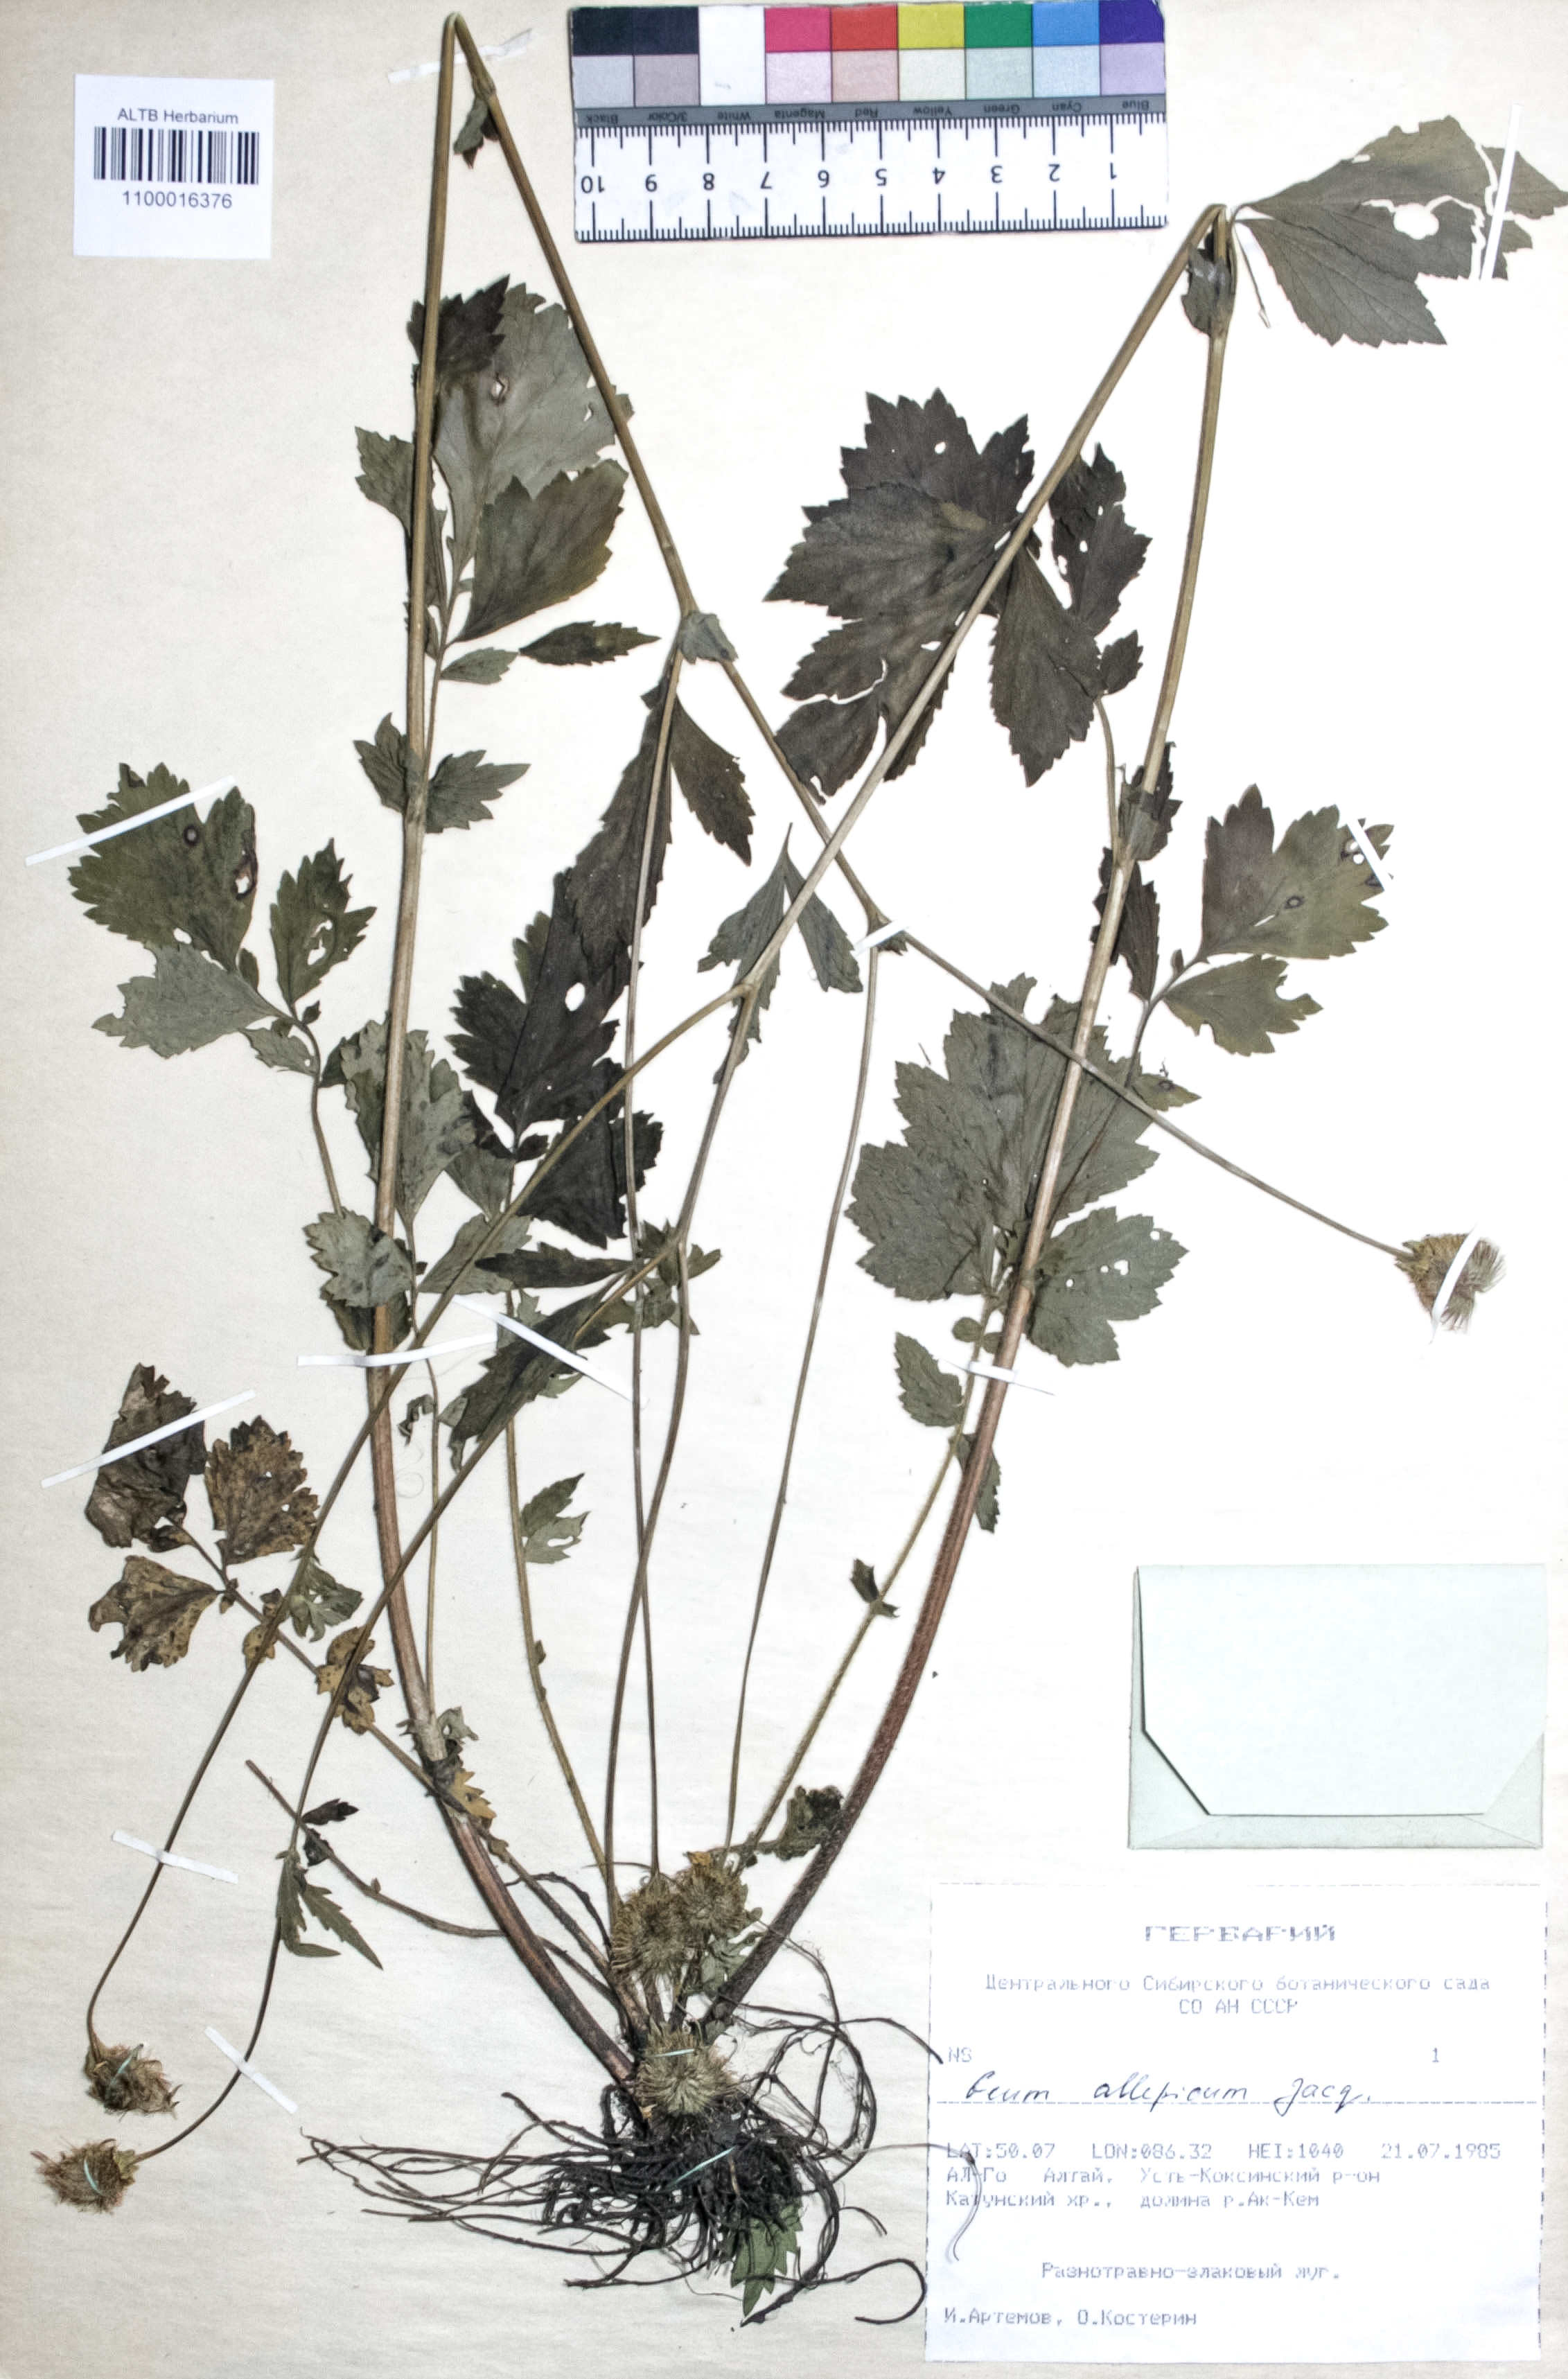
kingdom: Plantae
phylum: Tracheophyta
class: Magnoliopsida
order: Rosales
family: Rosaceae
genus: Geum
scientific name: Geum aleppicum
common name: Yellow avens
